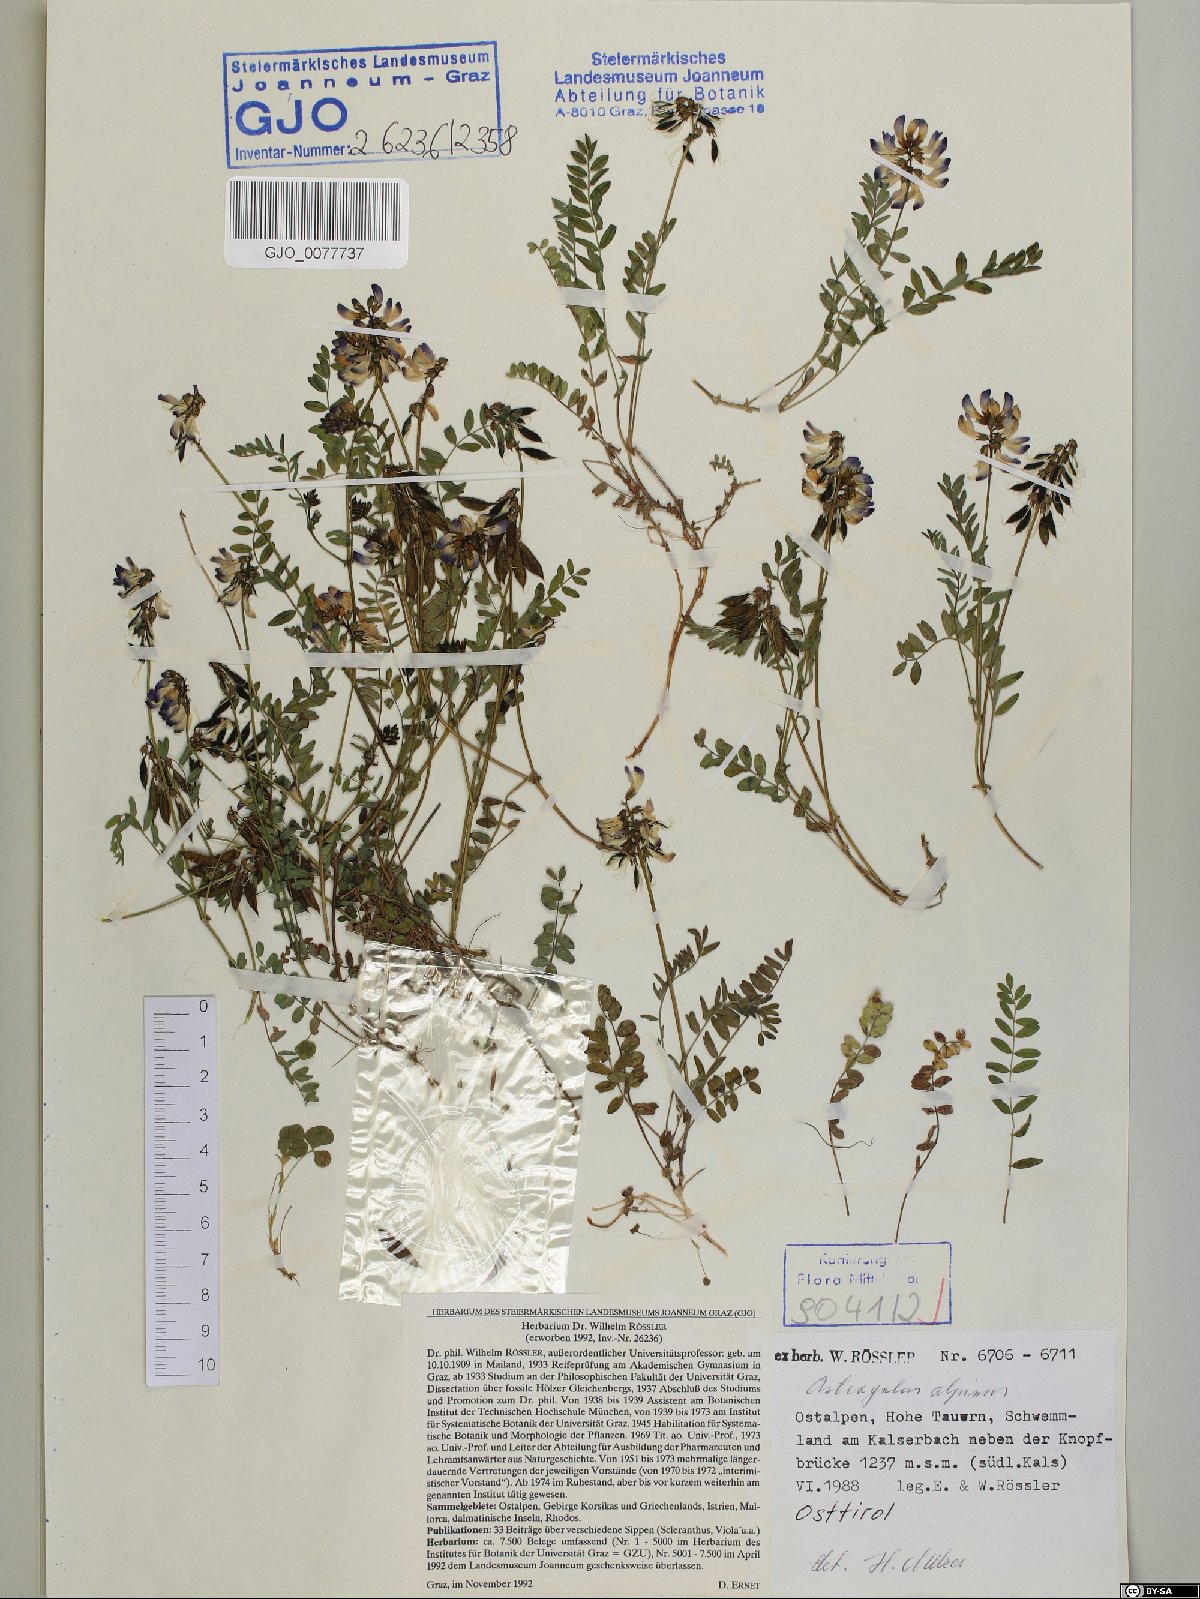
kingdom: Plantae
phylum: Tracheophyta
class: Magnoliopsida
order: Fabales
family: Fabaceae
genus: Astragalus
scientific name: Astragalus alpinus
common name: Alpine milk-vetch
